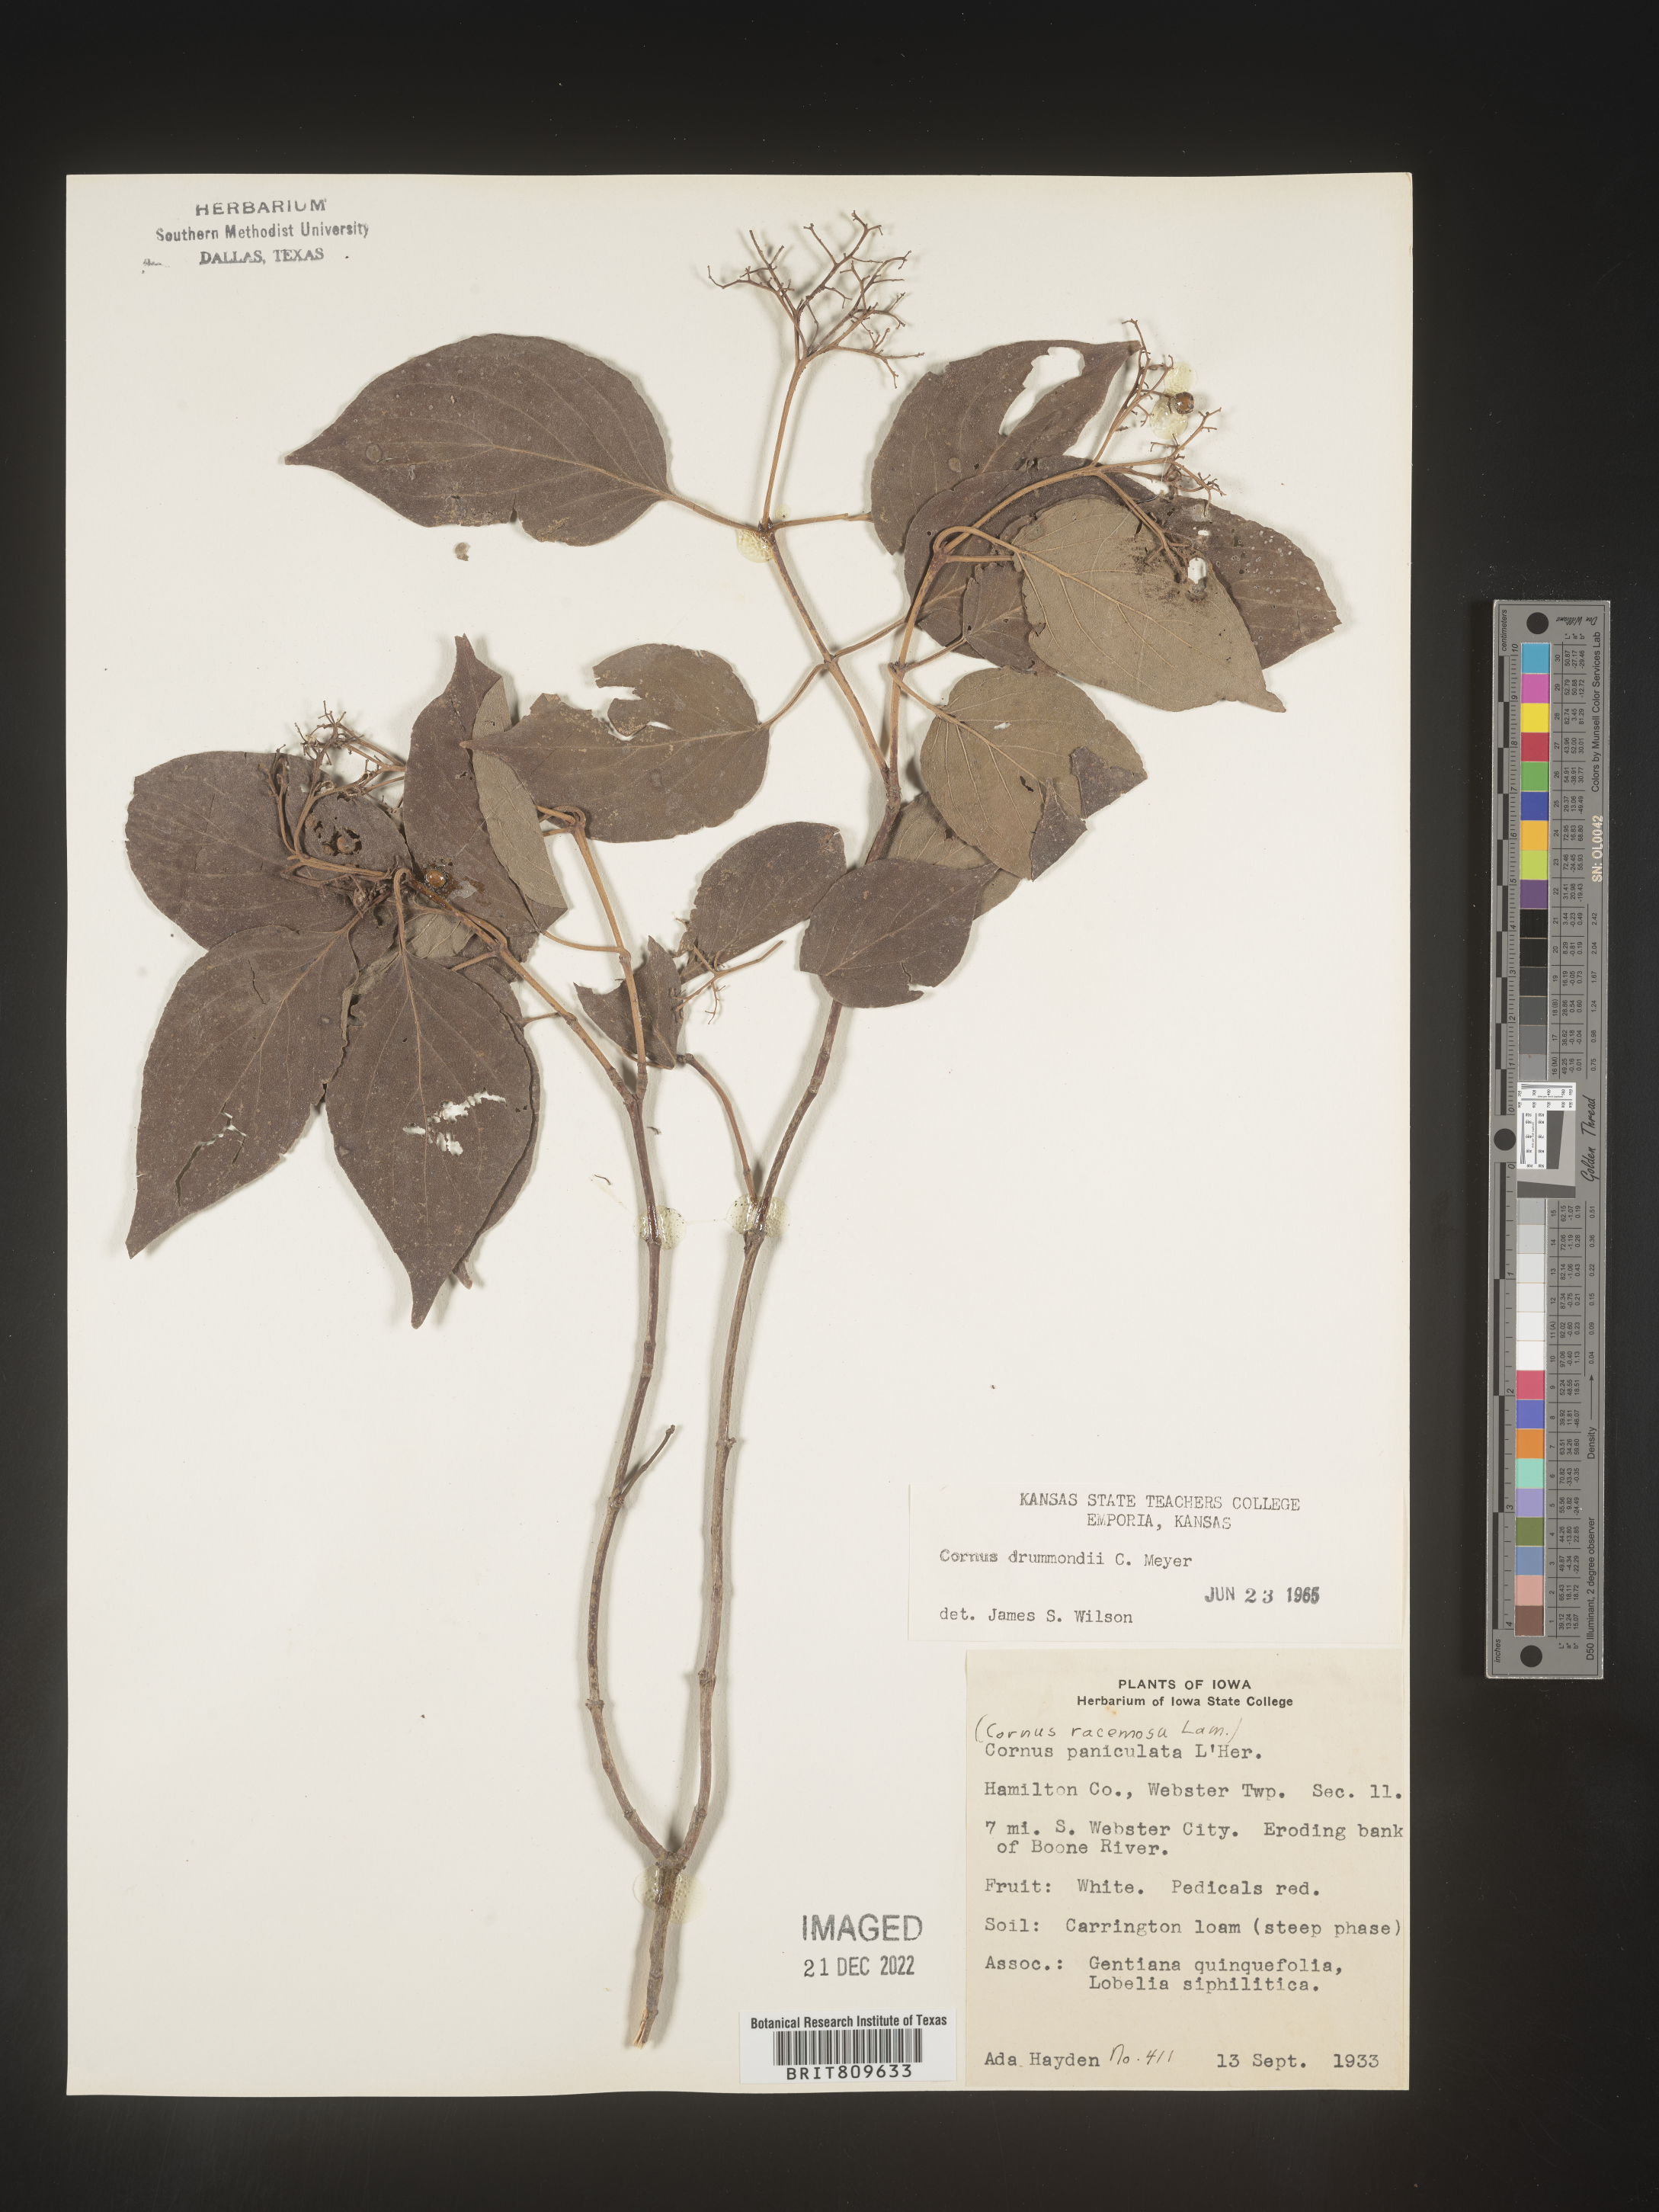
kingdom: Plantae
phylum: Tracheophyta
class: Magnoliopsida
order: Cornales
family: Cornaceae
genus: Cornus
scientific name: Cornus drummondii
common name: Rough-leaf dogwood
